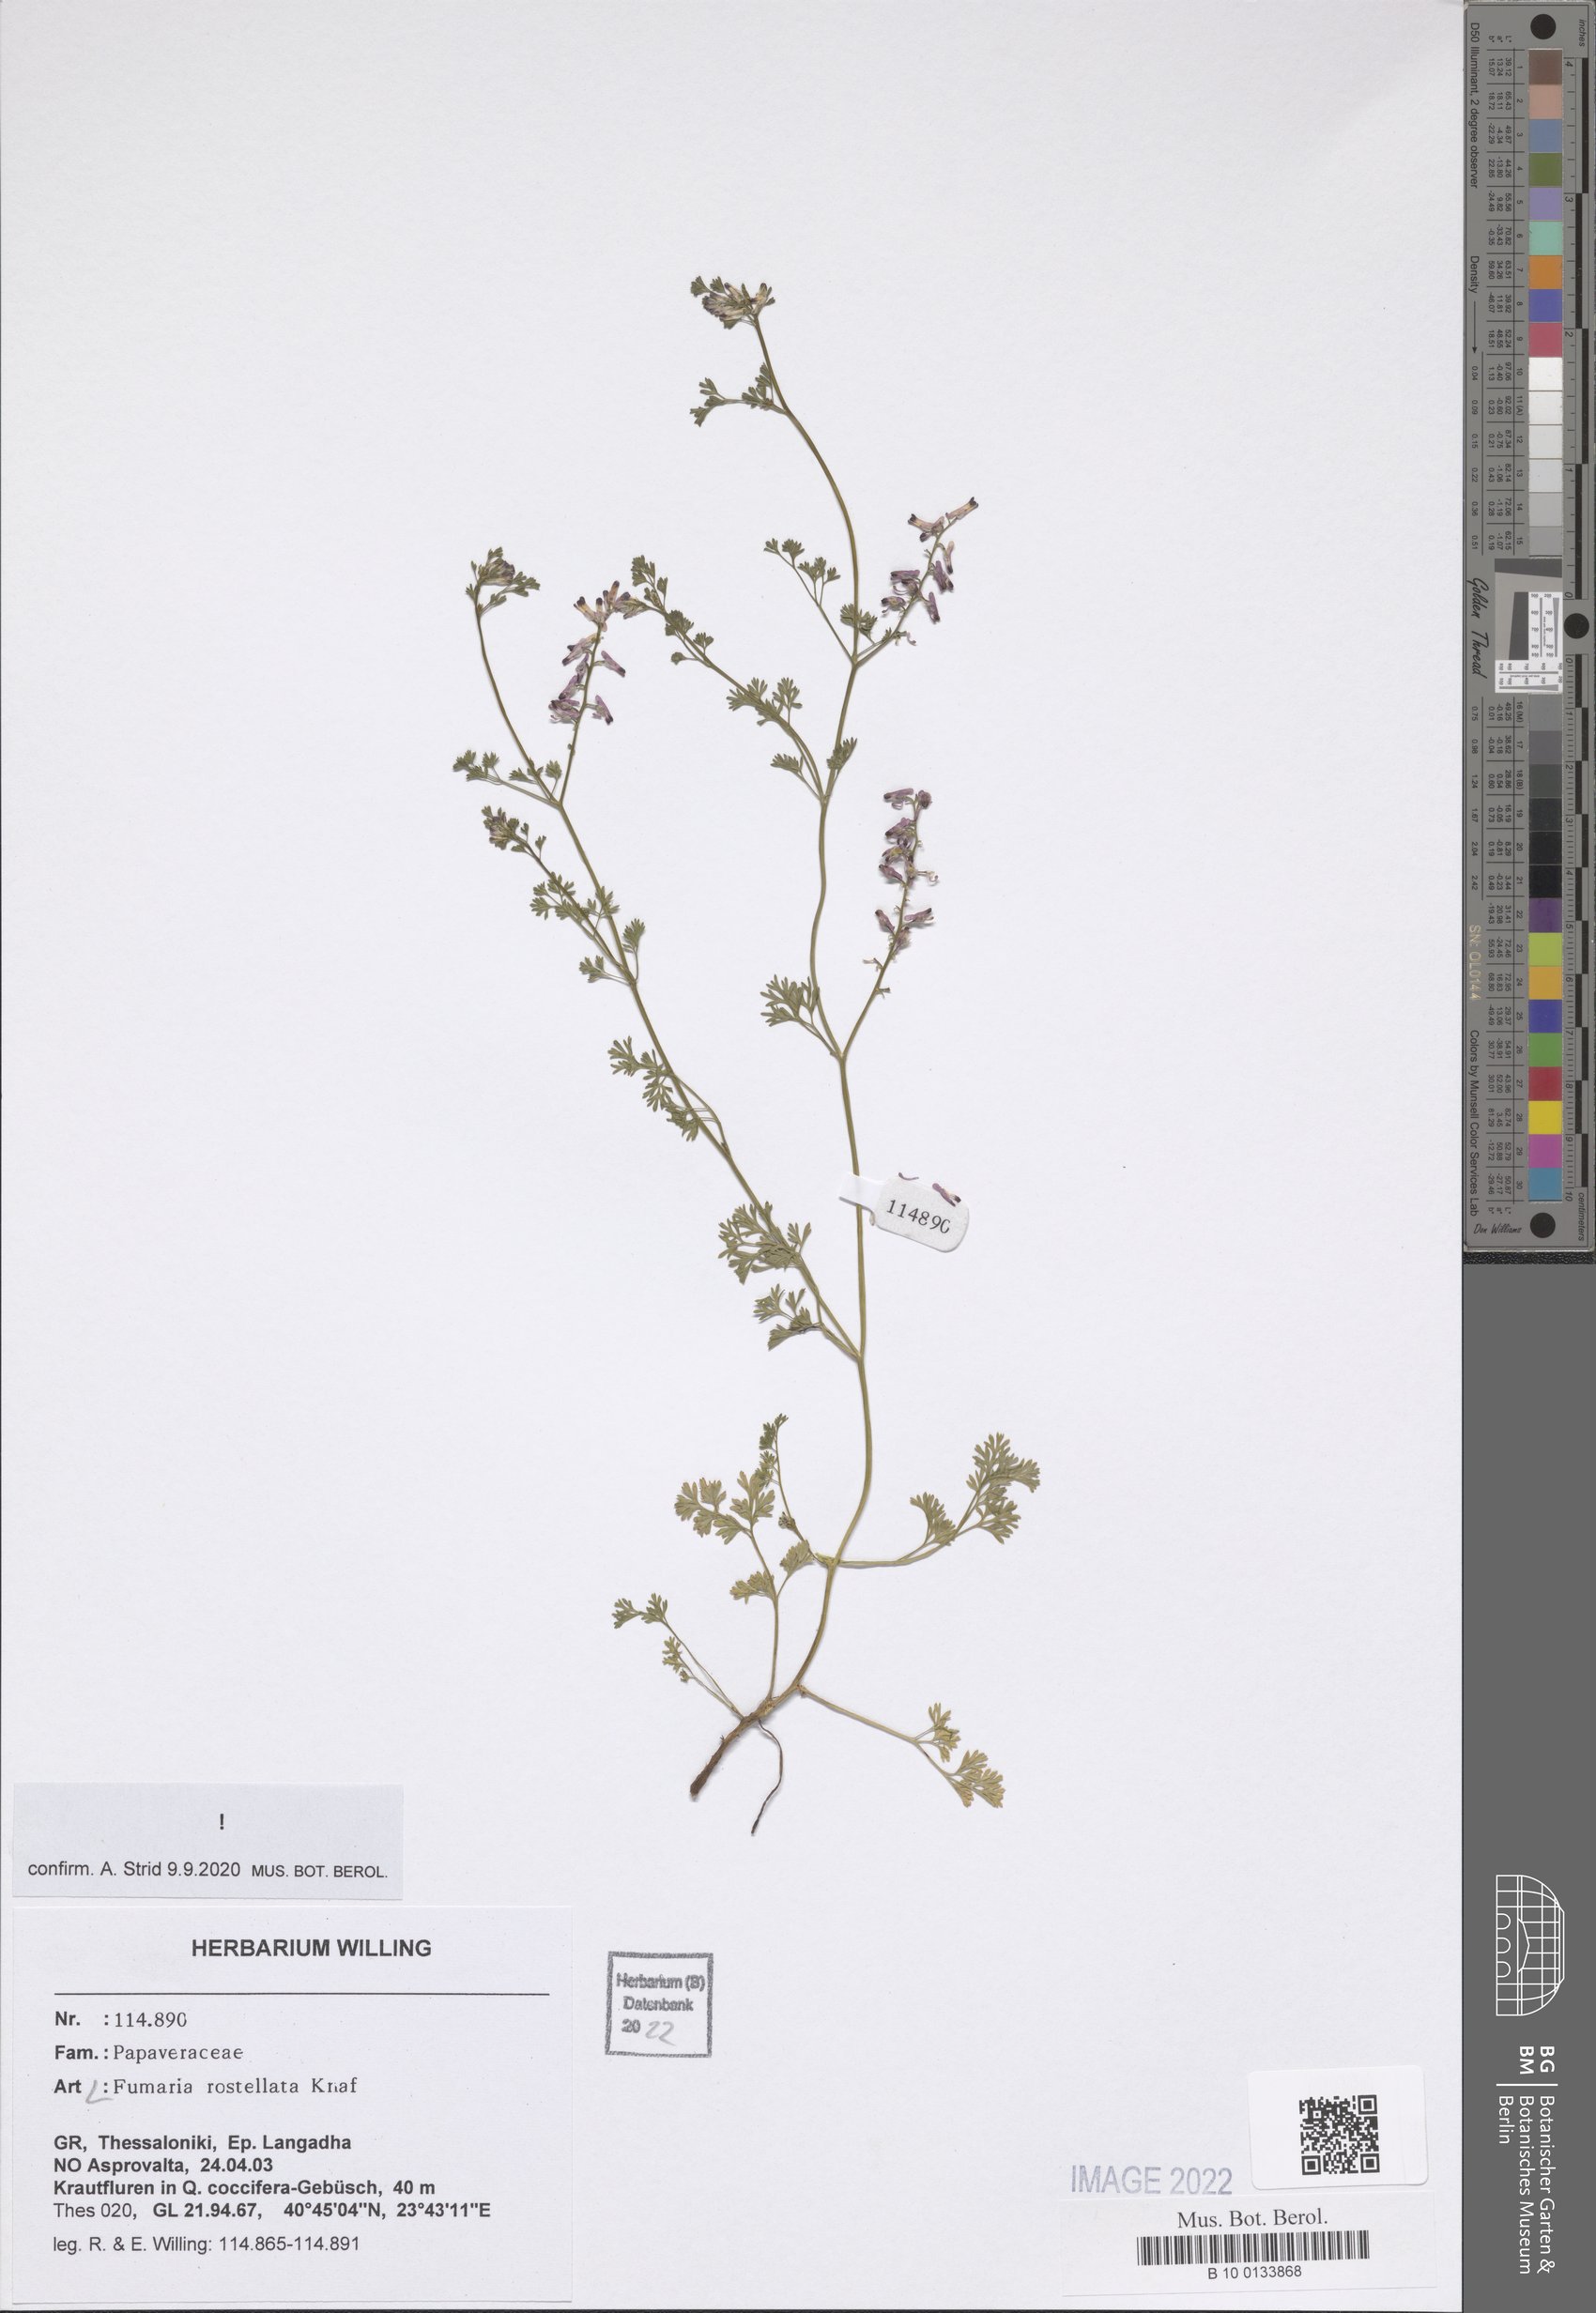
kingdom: Plantae
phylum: Tracheophyta
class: Magnoliopsida
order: Ranunculales
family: Papaveraceae
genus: Fumaria
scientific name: Fumaria rostellata
